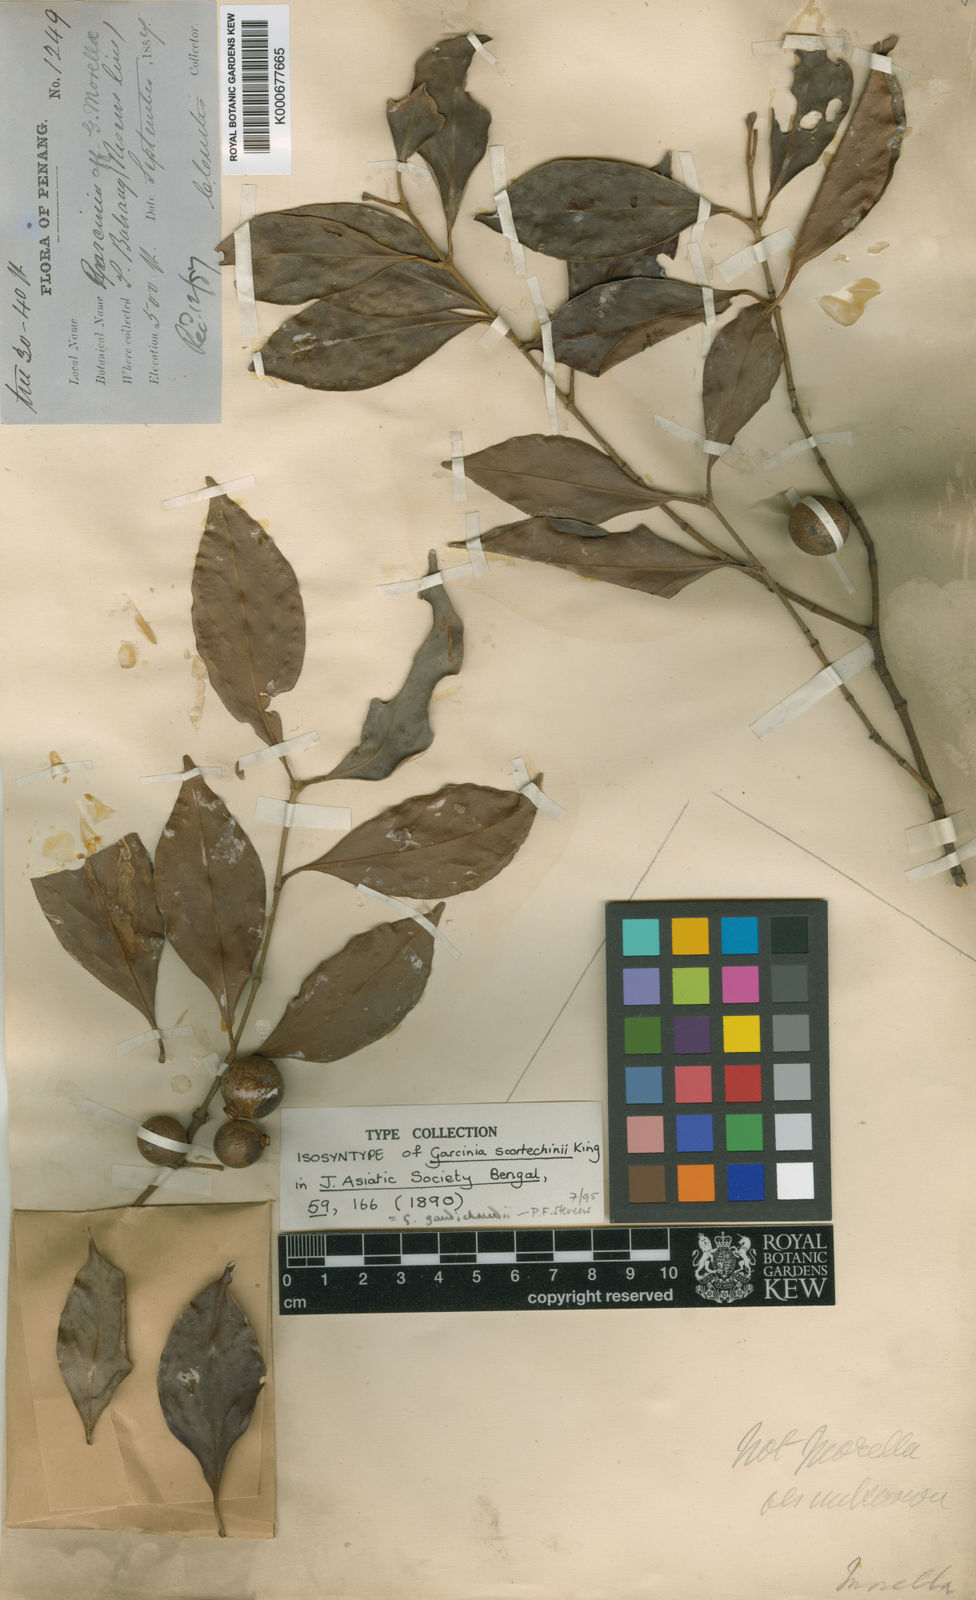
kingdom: Plantae
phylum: Tracheophyta
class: Magnoliopsida
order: Malpighiales
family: Clusiaceae
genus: Garcinia
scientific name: Garcinia gaudichaudii
